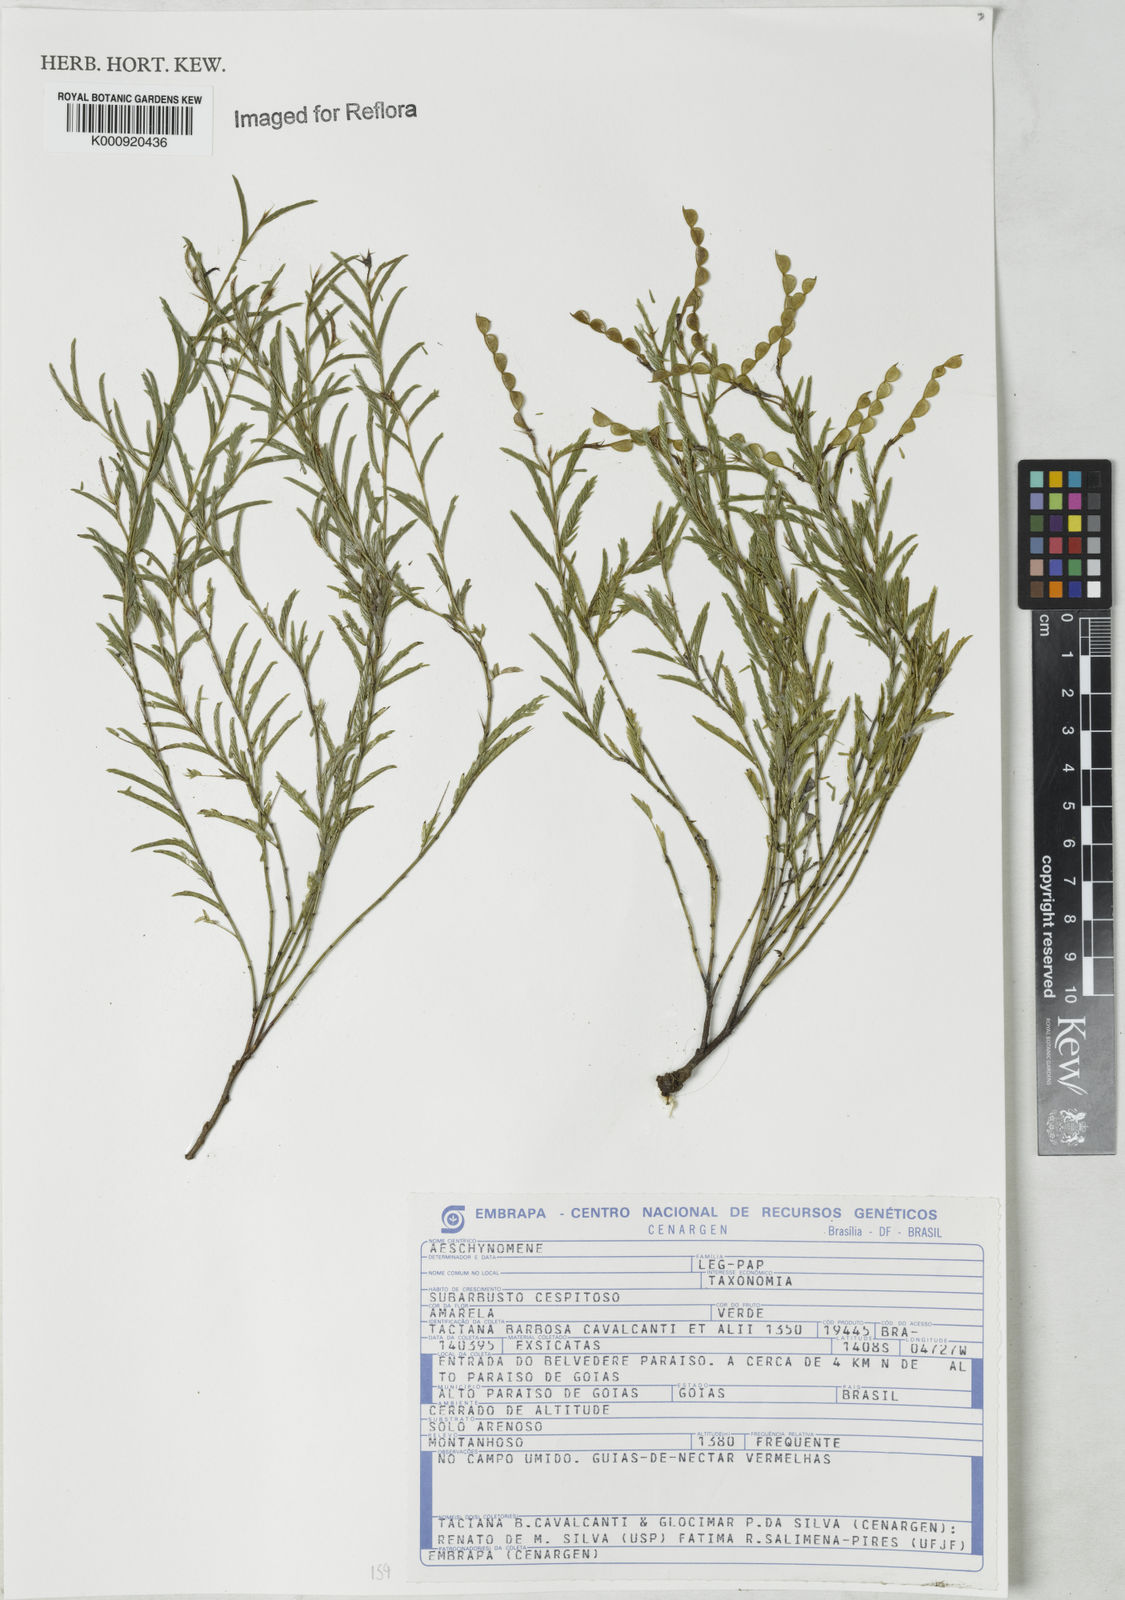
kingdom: Plantae
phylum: Tracheophyta
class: Magnoliopsida
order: Fabales
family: Fabaceae
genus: Aeschynomene
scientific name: Aeschynomene
